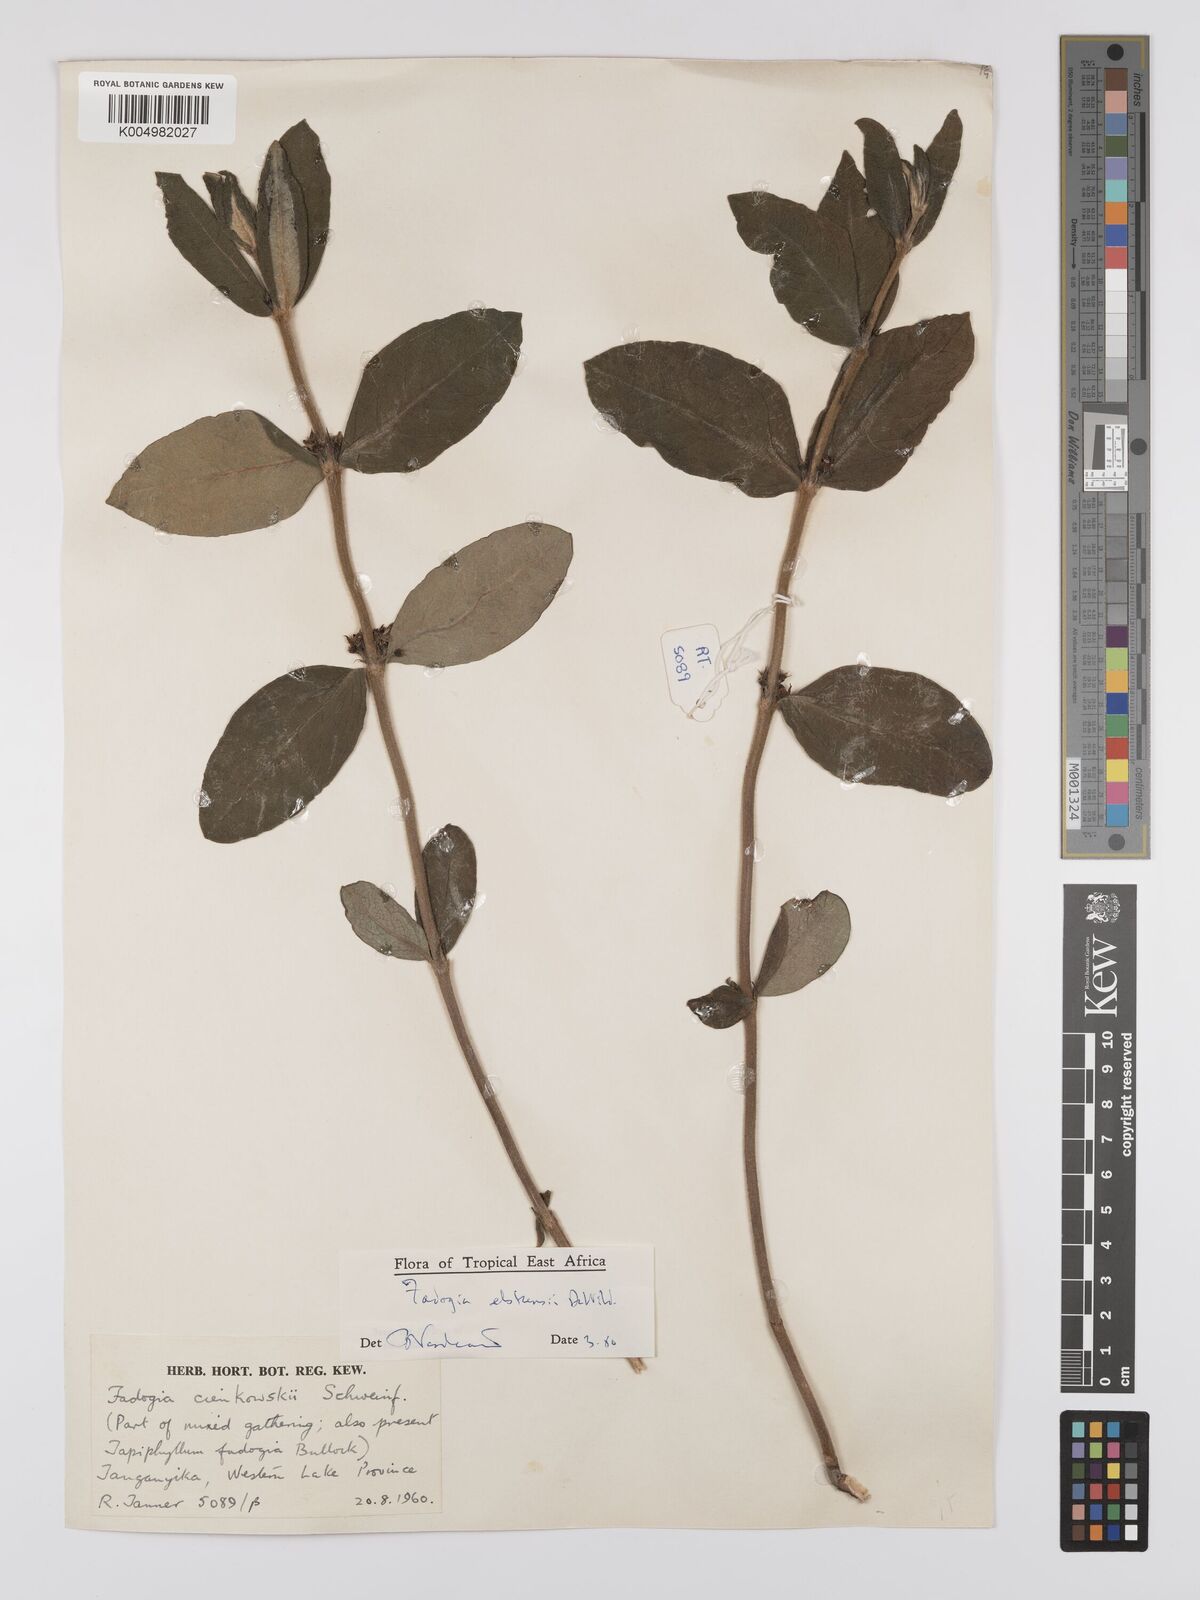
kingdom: Plantae
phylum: Tracheophyta
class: Magnoliopsida
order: Gentianales
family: Rubiaceae
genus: Fadogia
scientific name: Fadogia elskensii
